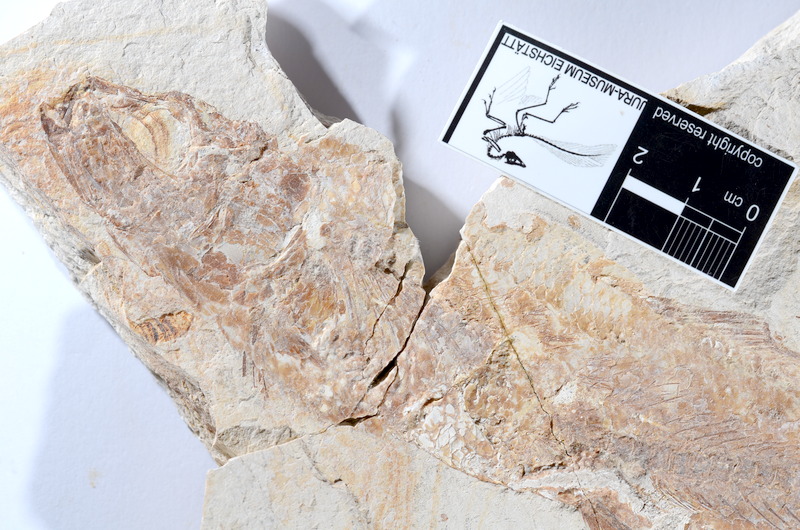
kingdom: Animalia
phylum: Chordata
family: Ascalaboidae
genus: Tharsis
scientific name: Tharsis dubius
